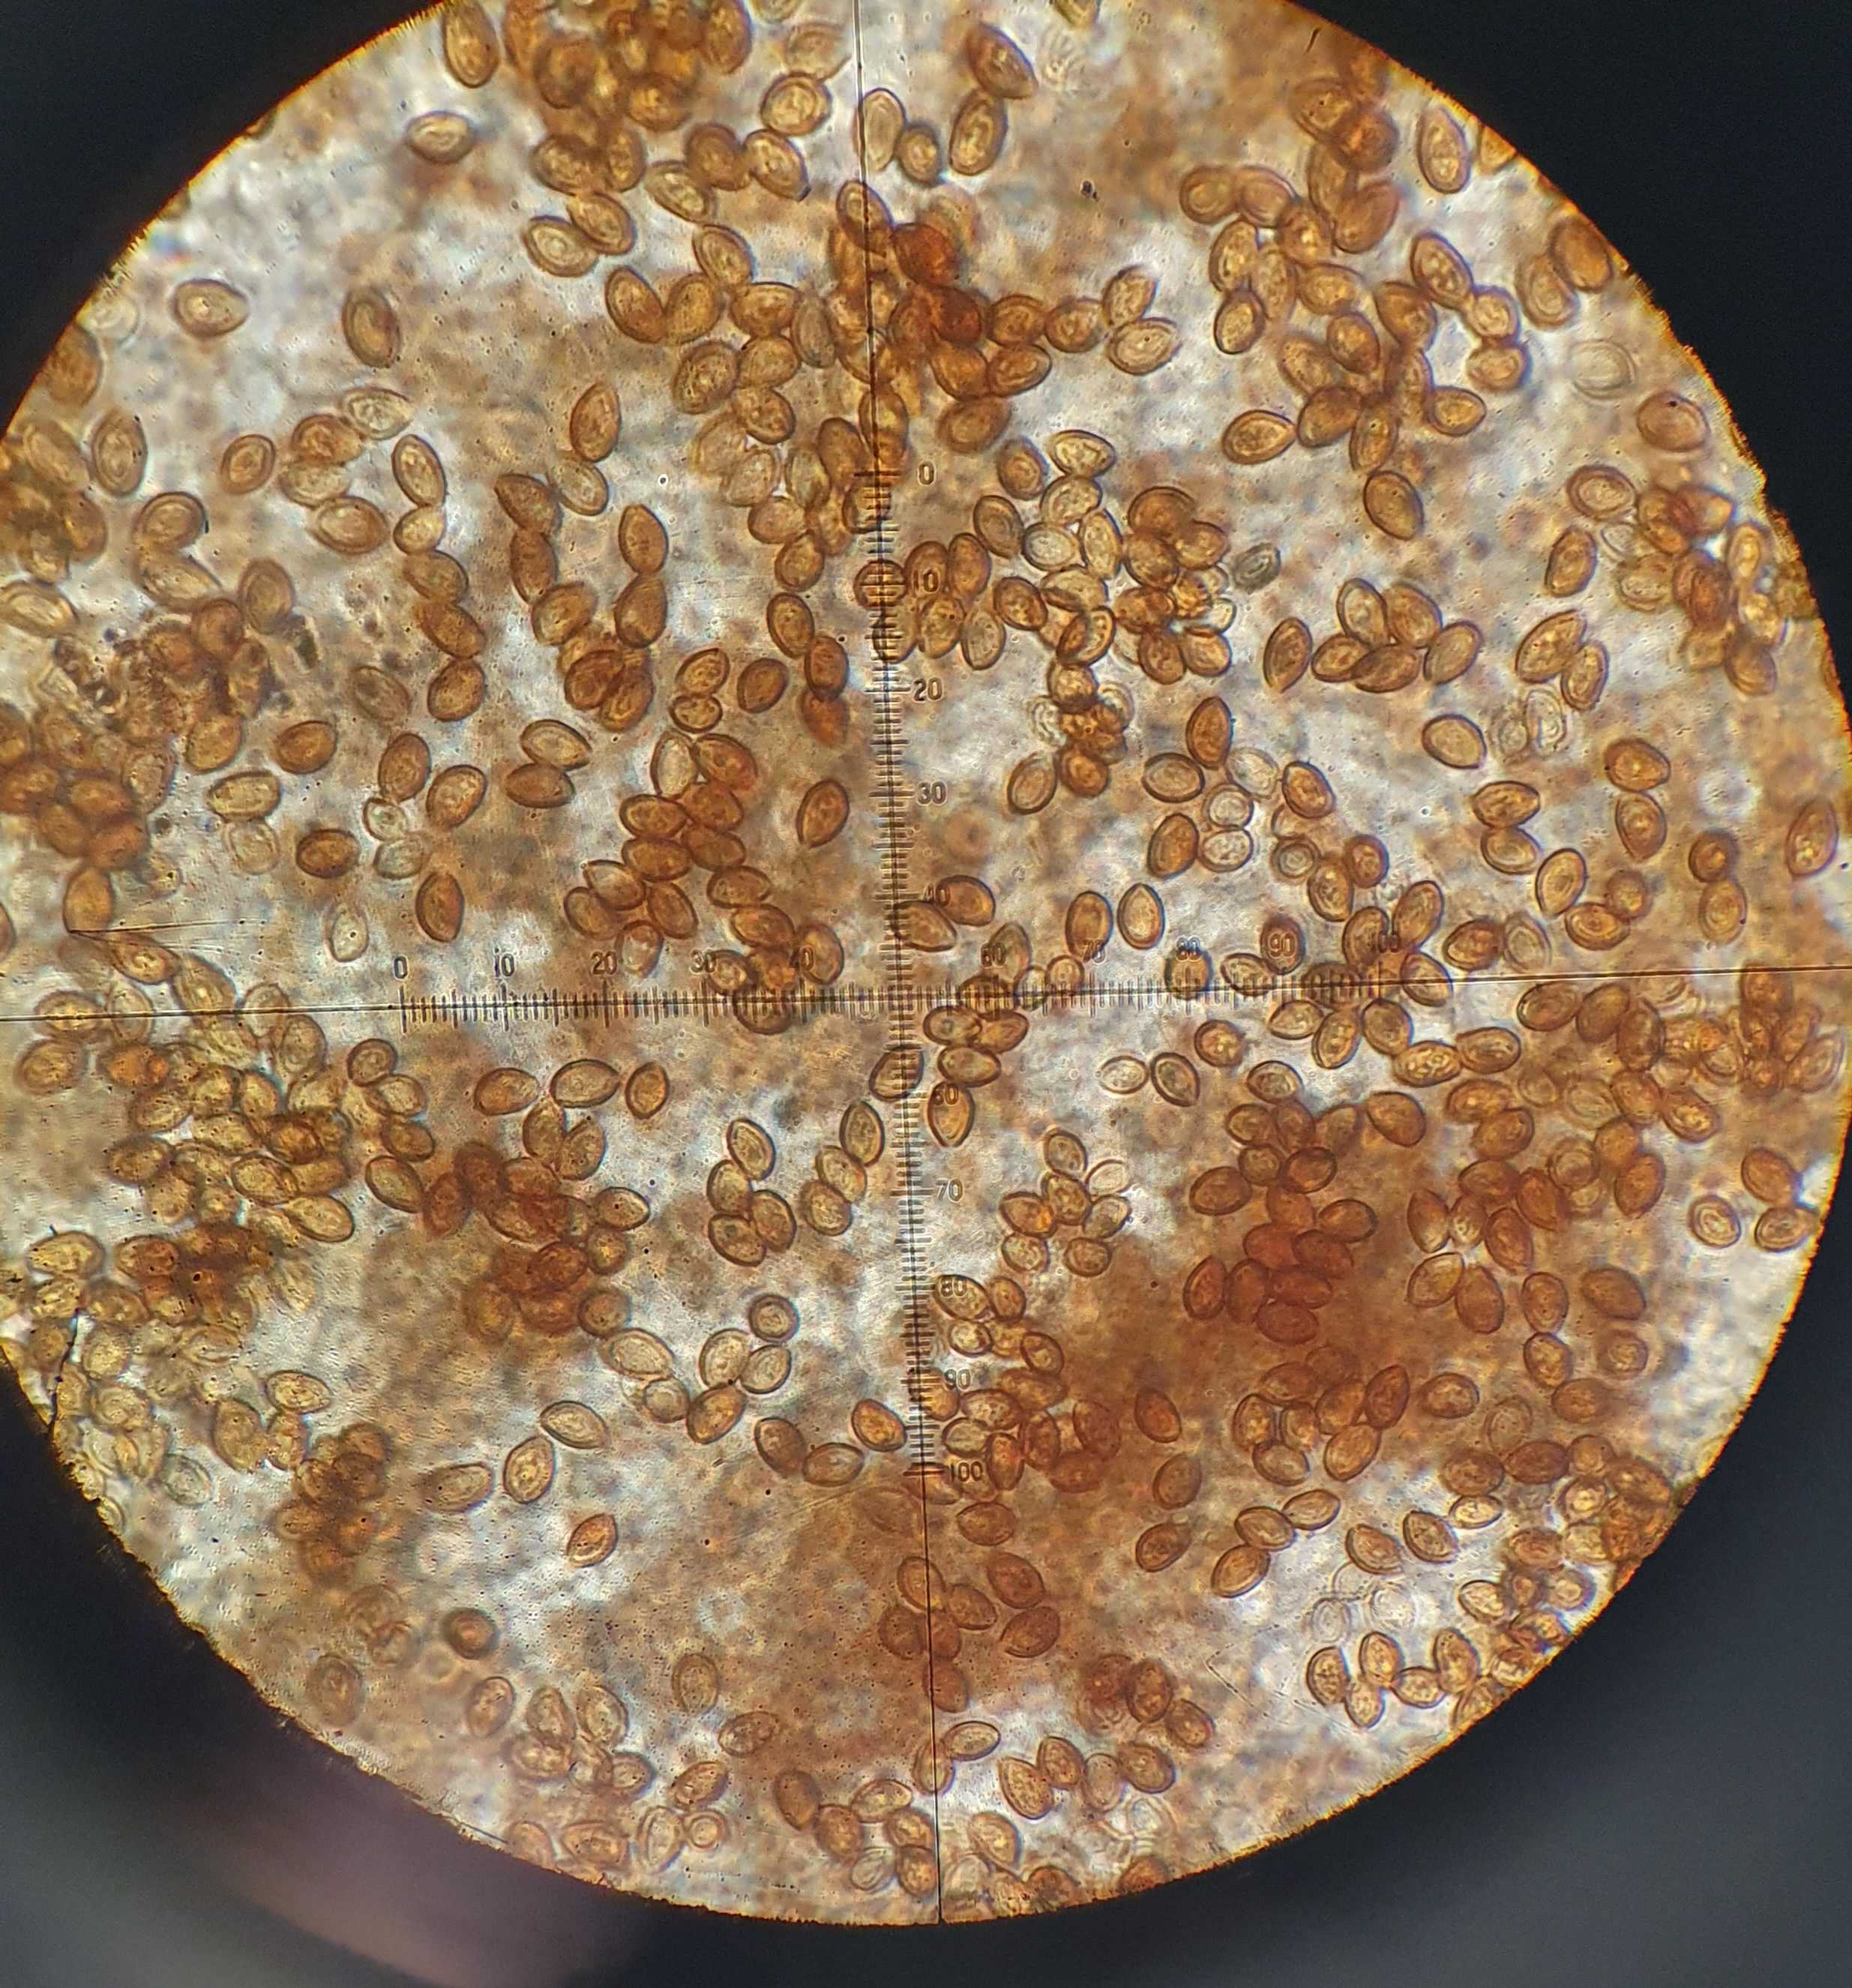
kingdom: Fungi
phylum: Basidiomycota
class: Agaricomycetes
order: Agaricales
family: Strophariaceae
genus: Kuehneromyces
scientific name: Kuehneromyces mutabilis
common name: foranderlig skælhat
